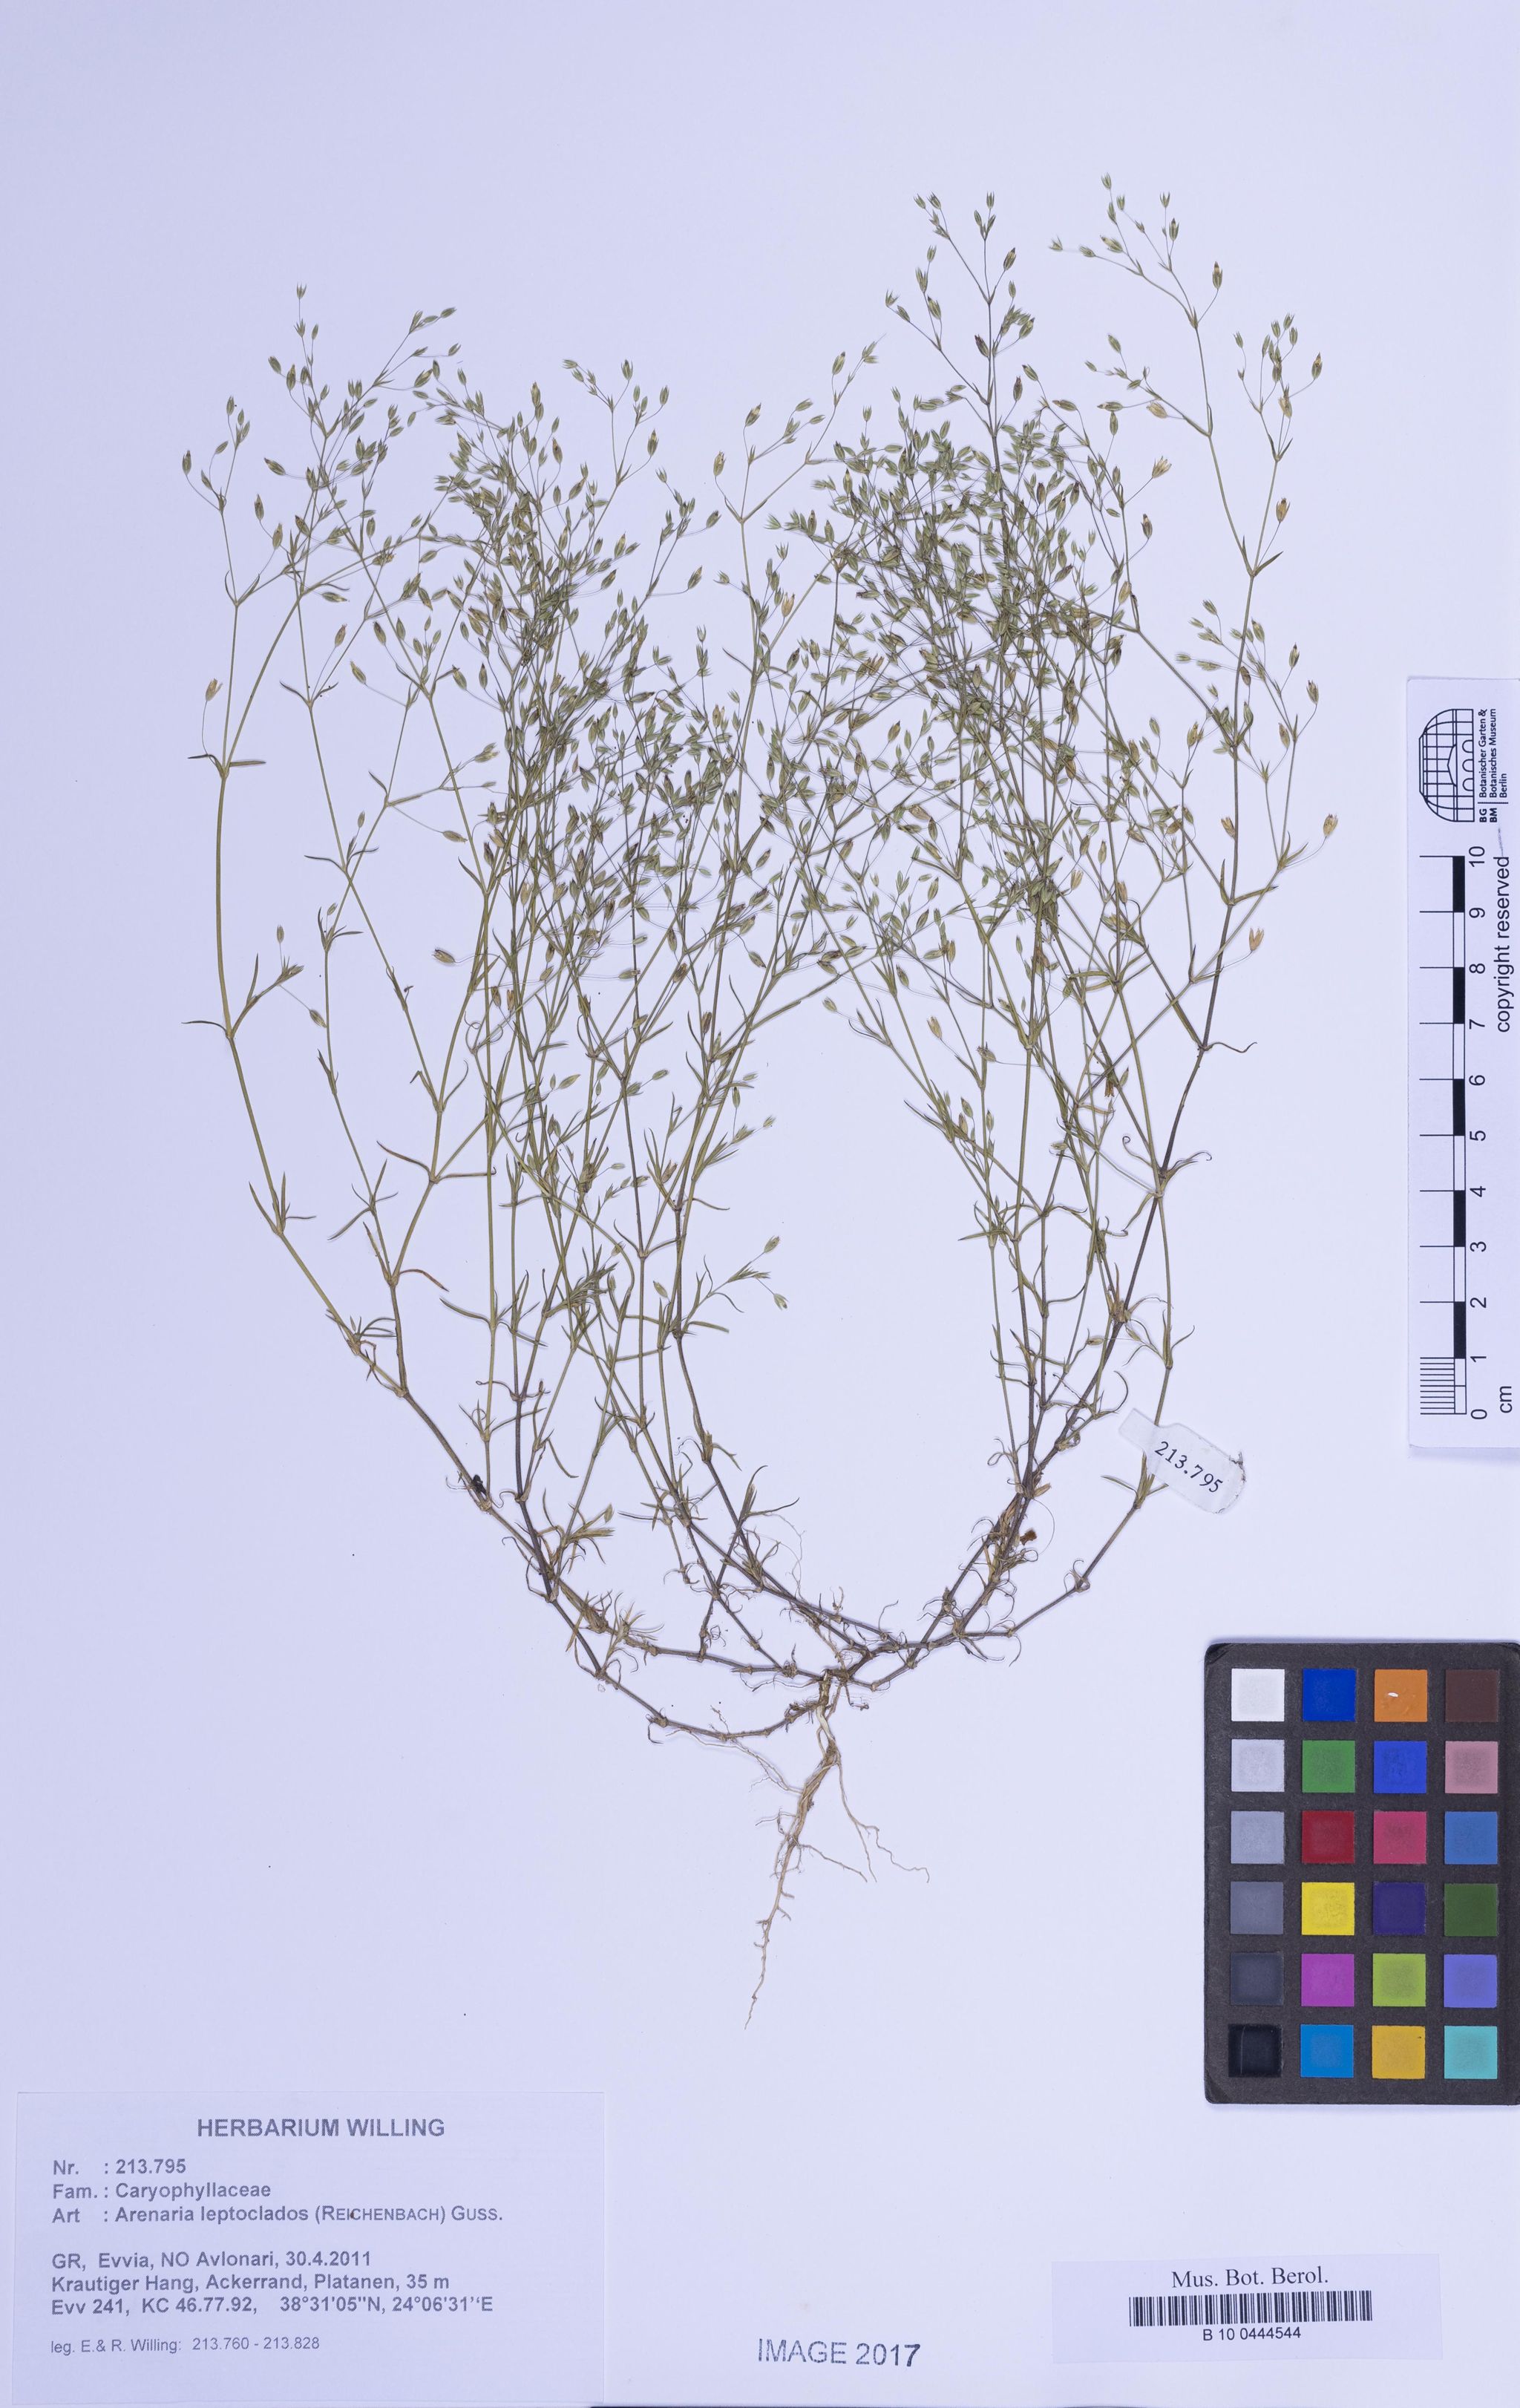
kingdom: Plantae
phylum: Tracheophyta
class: Magnoliopsida
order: Caryophyllales
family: Caryophyllaceae
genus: Arenaria
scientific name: Arenaria leptoclados
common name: Thyme-leaved sandwort
